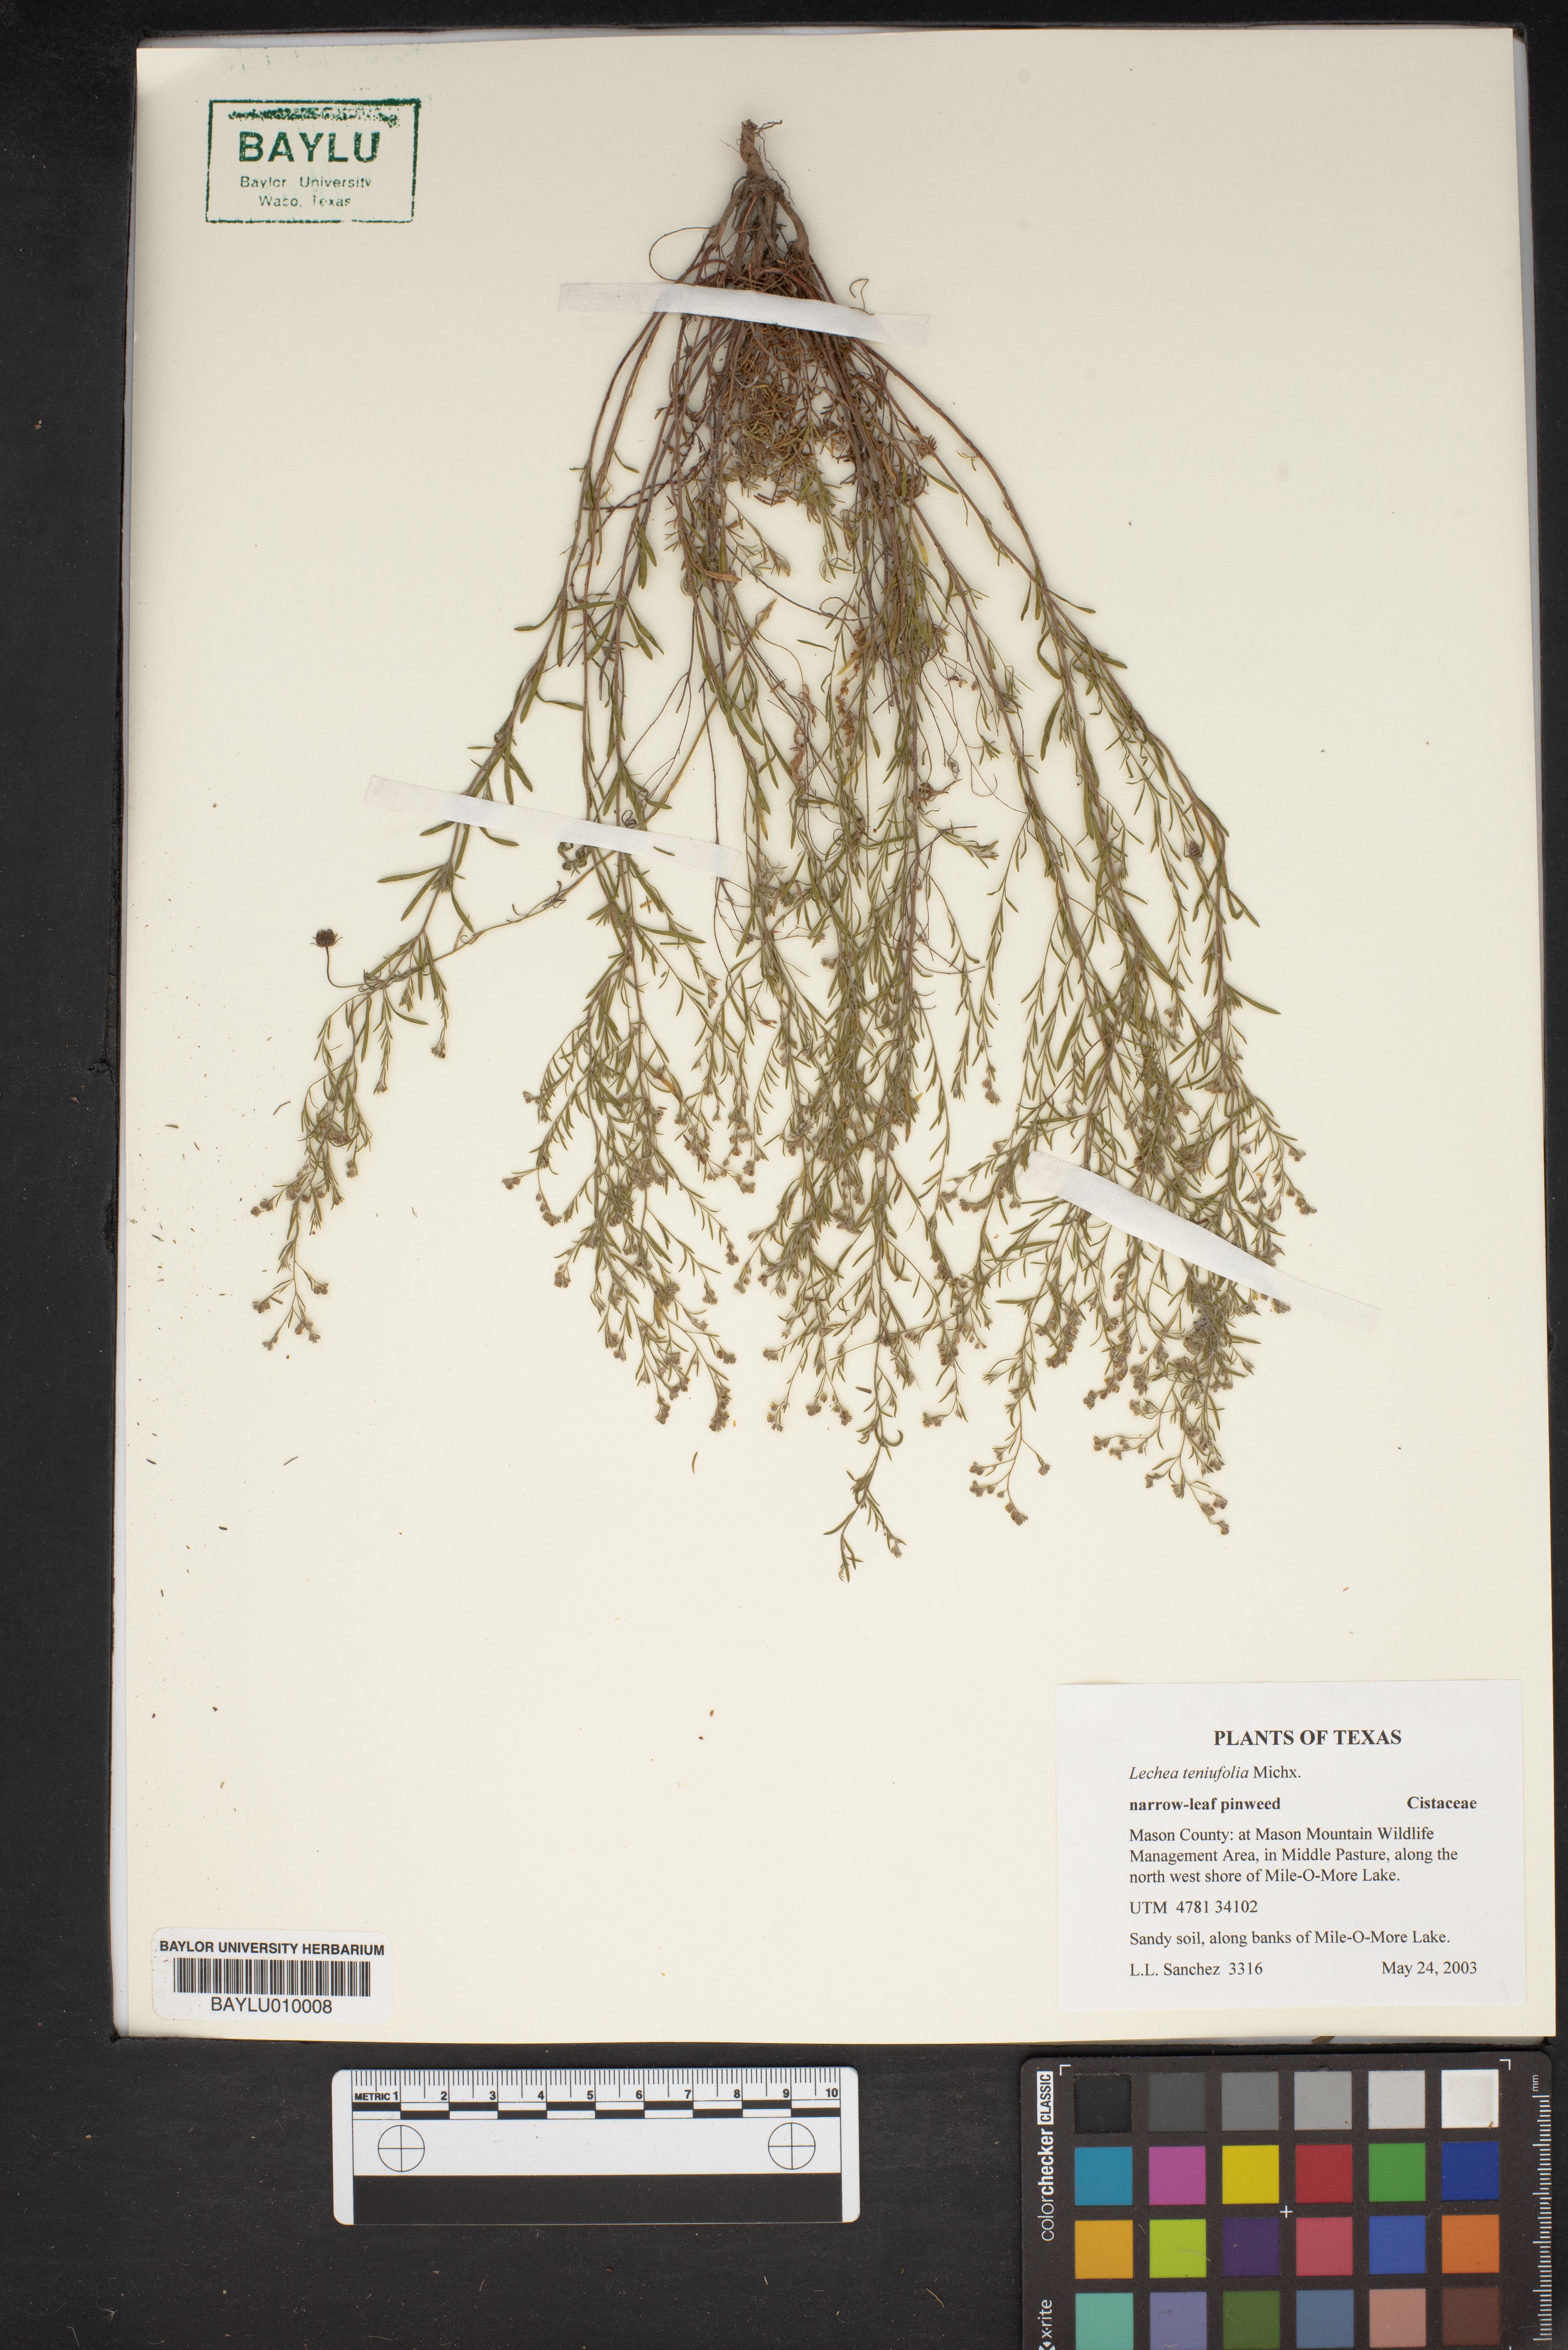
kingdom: Plantae
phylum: Tracheophyta
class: Magnoliopsida
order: Malvales
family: Cistaceae
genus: Lechea
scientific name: Lechea tenuifolia
